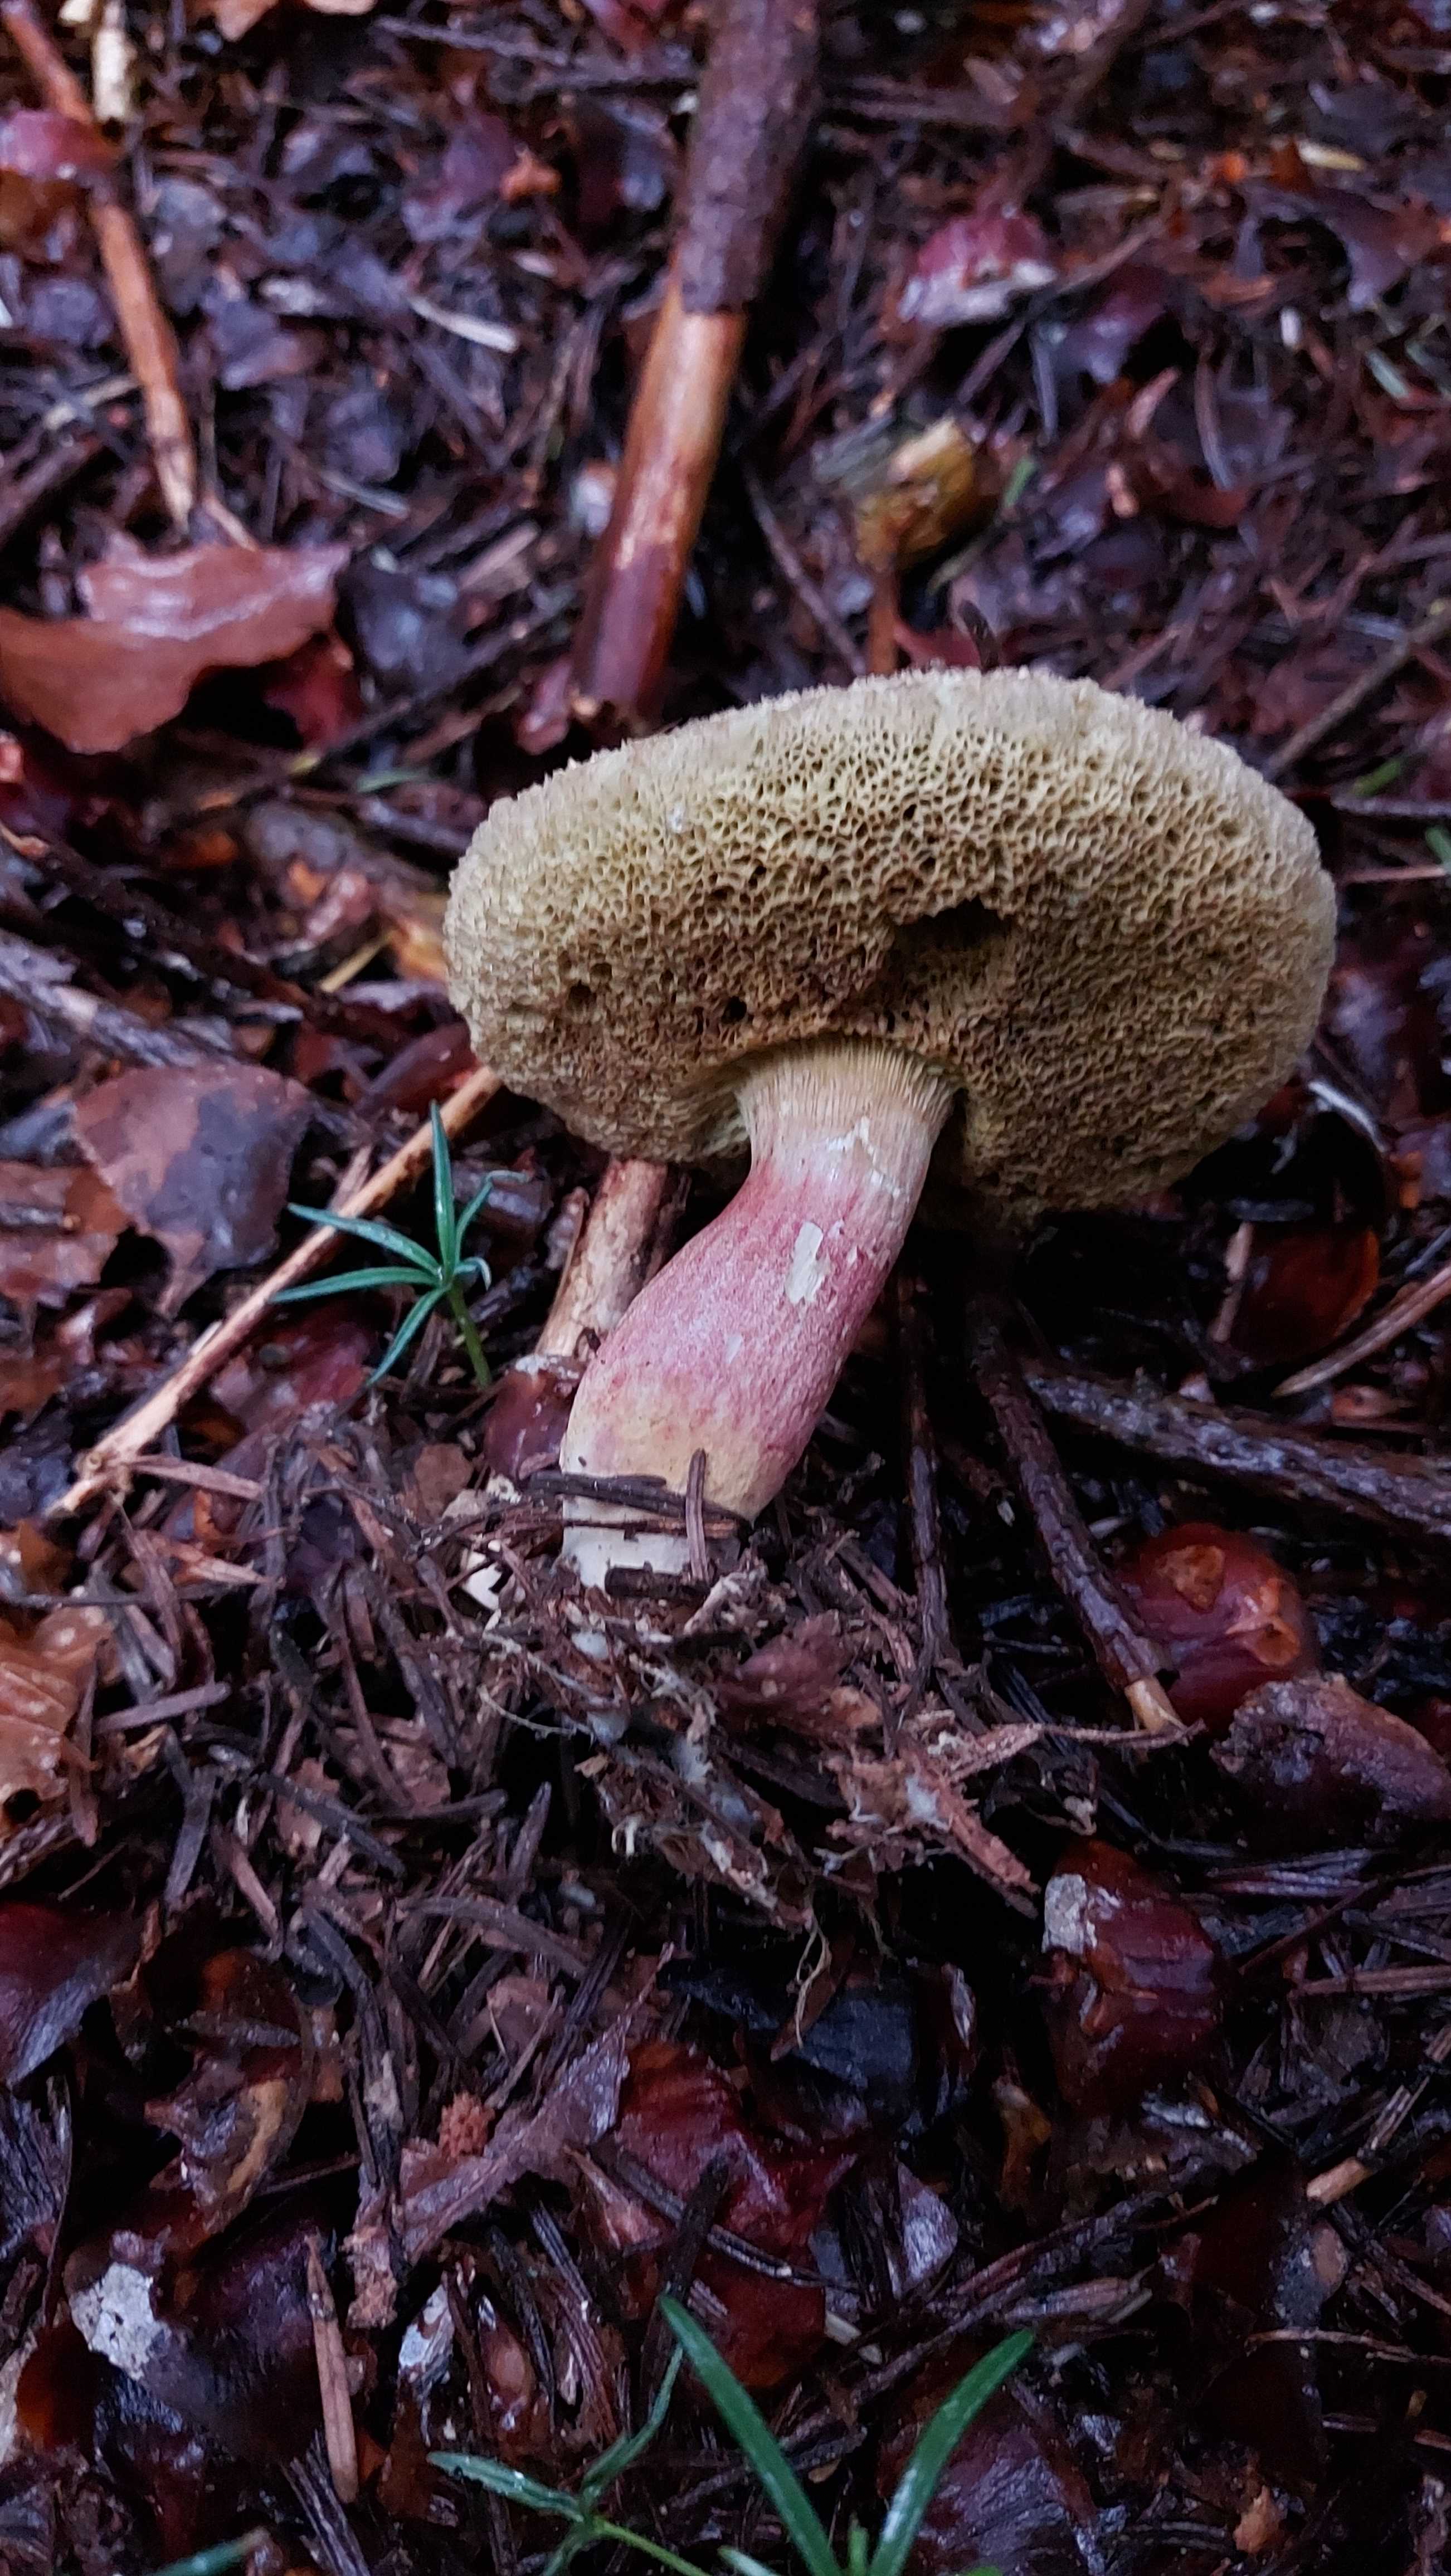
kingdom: Fungi
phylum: Basidiomycota
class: Agaricomycetes
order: Boletales
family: Boletaceae
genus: Xerocomellus
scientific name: Xerocomellus chrysenteron
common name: rødsprukken rørhat
